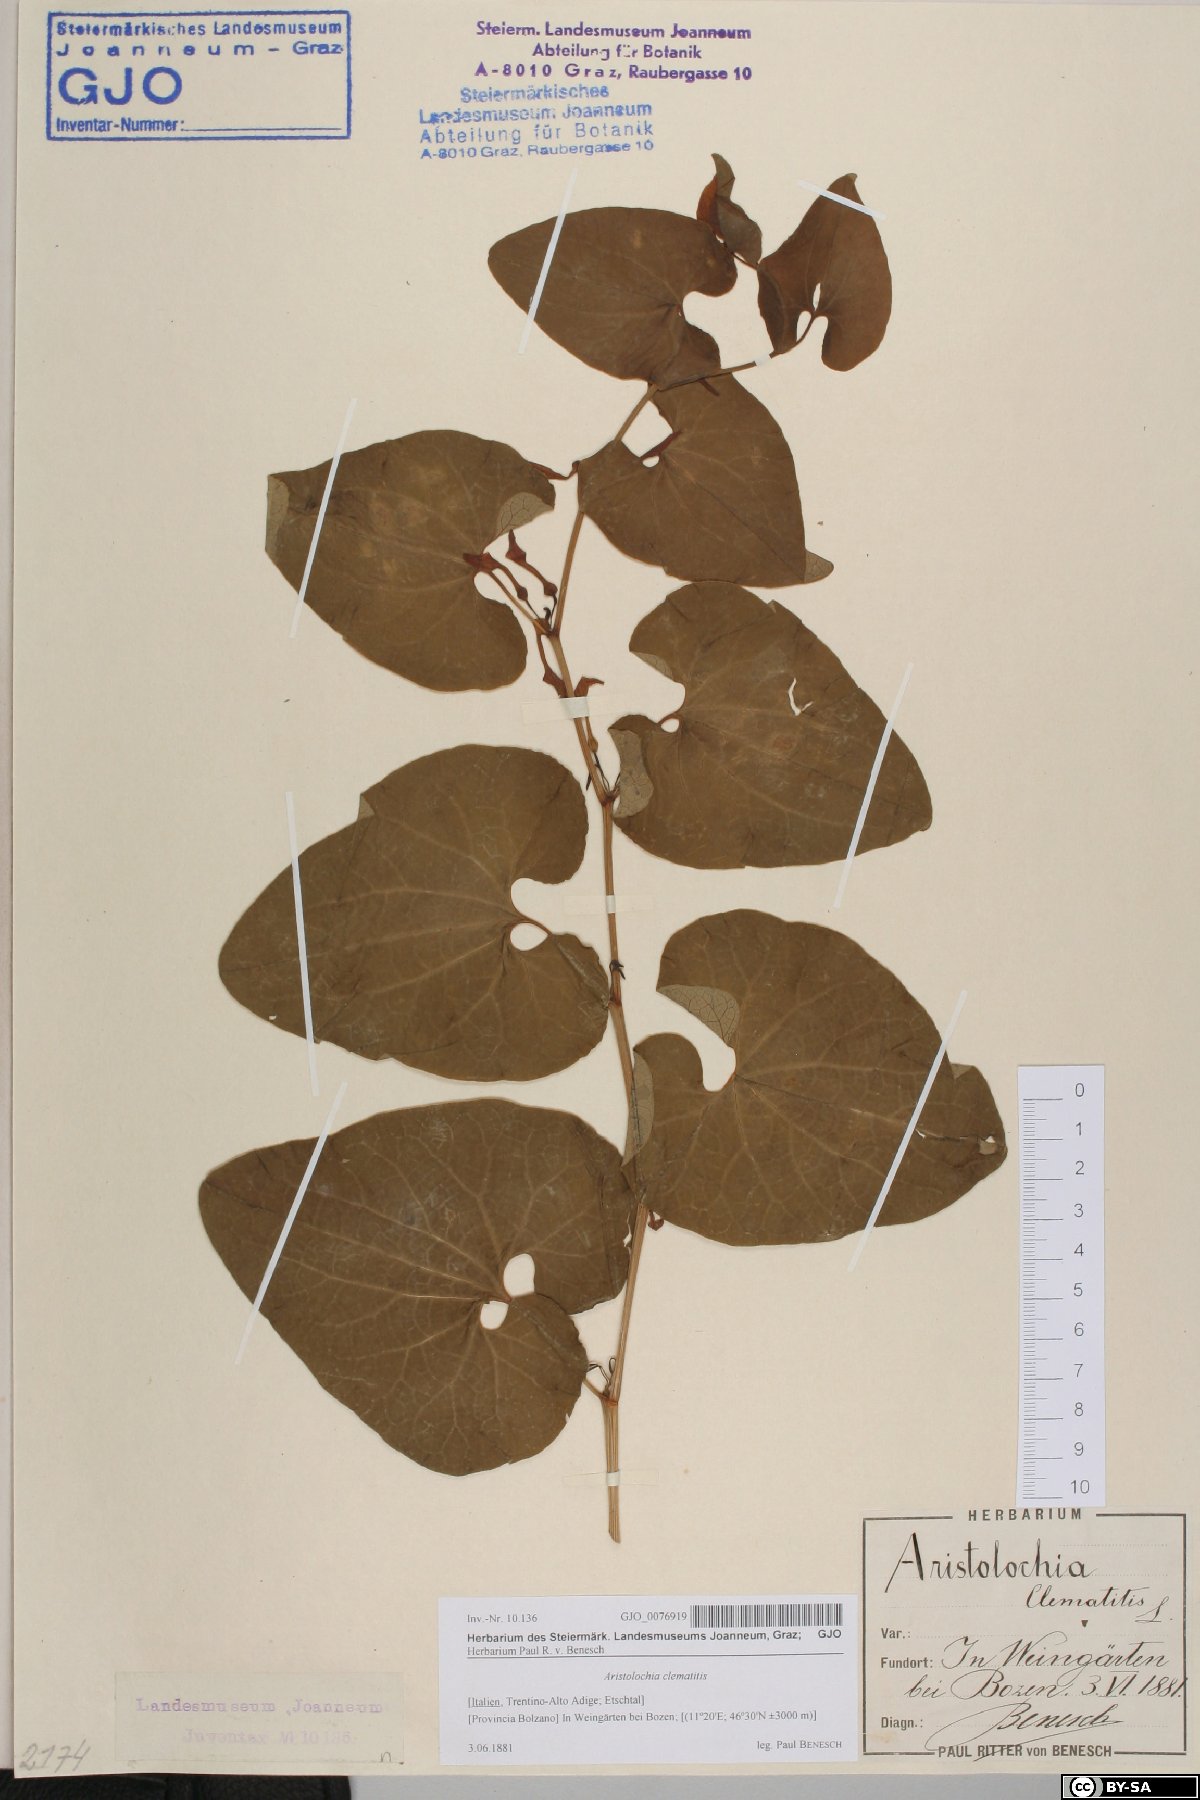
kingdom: Plantae
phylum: Tracheophyta
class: Magnoliopsida
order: Piperales
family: Aristolochiaceae
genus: Aristolochia
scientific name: Aristolochia clematitis
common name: Birthwort
